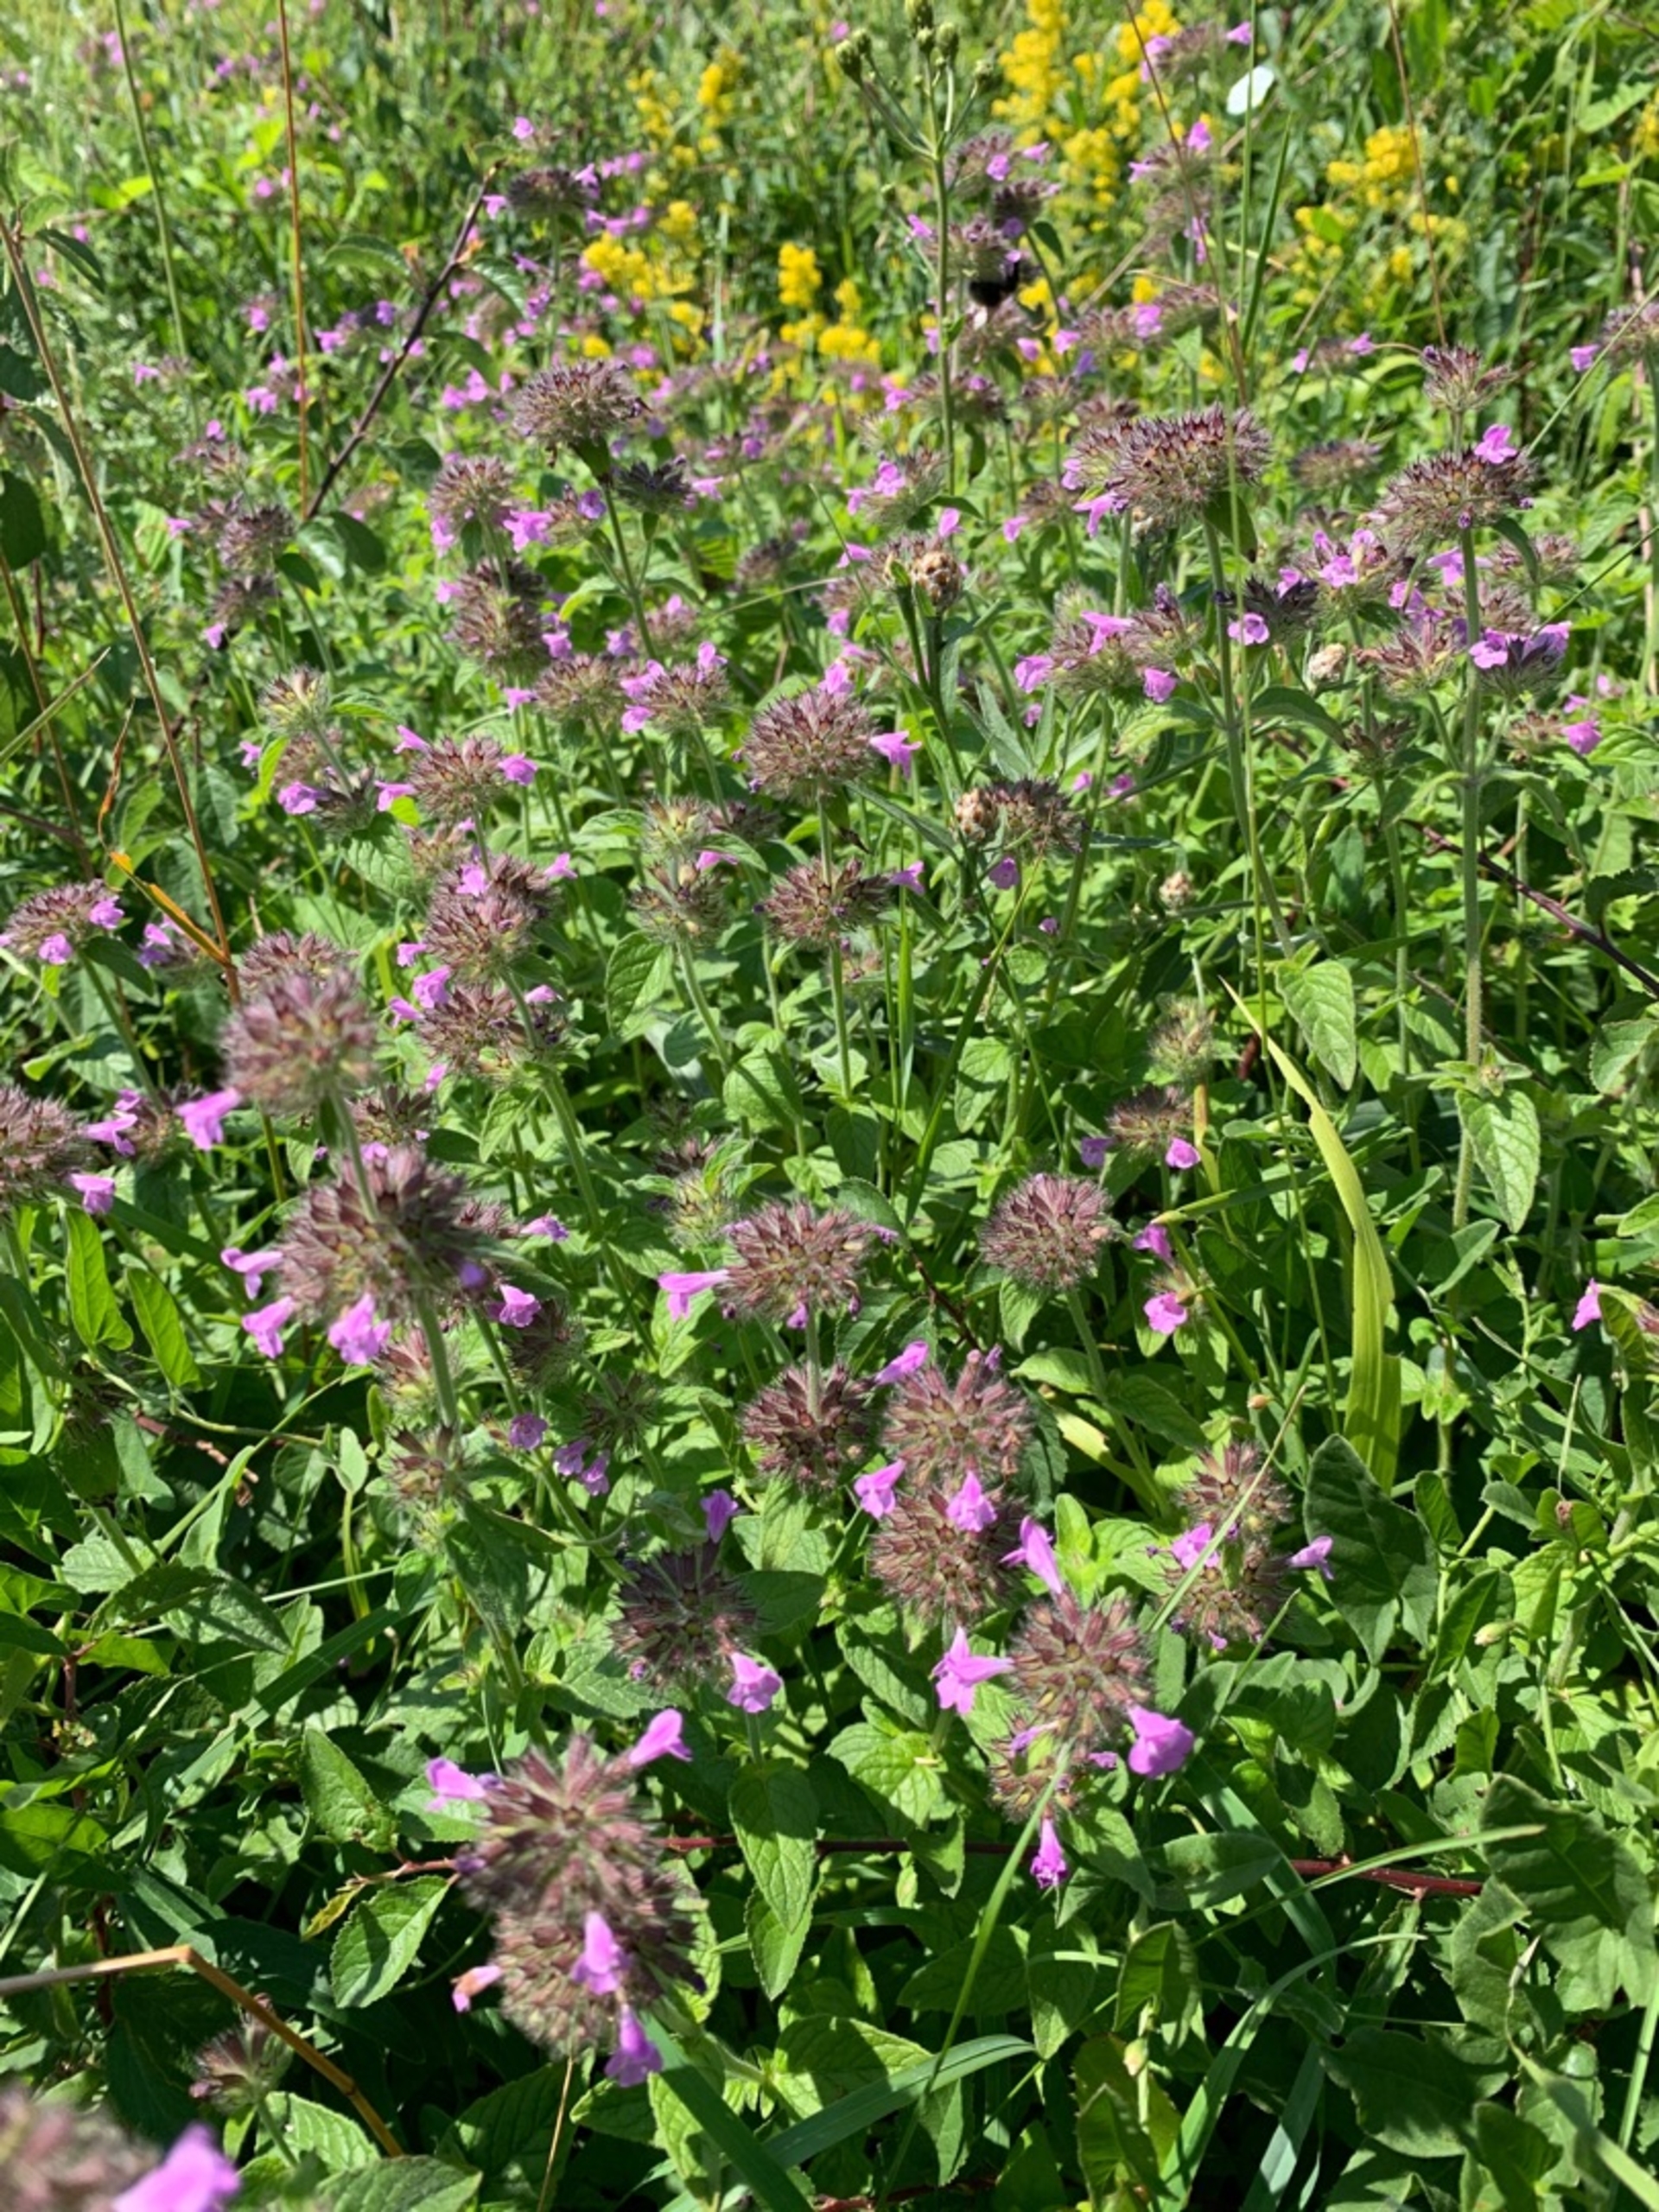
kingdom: Plantae
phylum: Tracheophyta
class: Magnoliopsida
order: Lamiales
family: Lamiaceae
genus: Clinopodium
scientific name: Clinopodium vulgare
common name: Kransbørste
